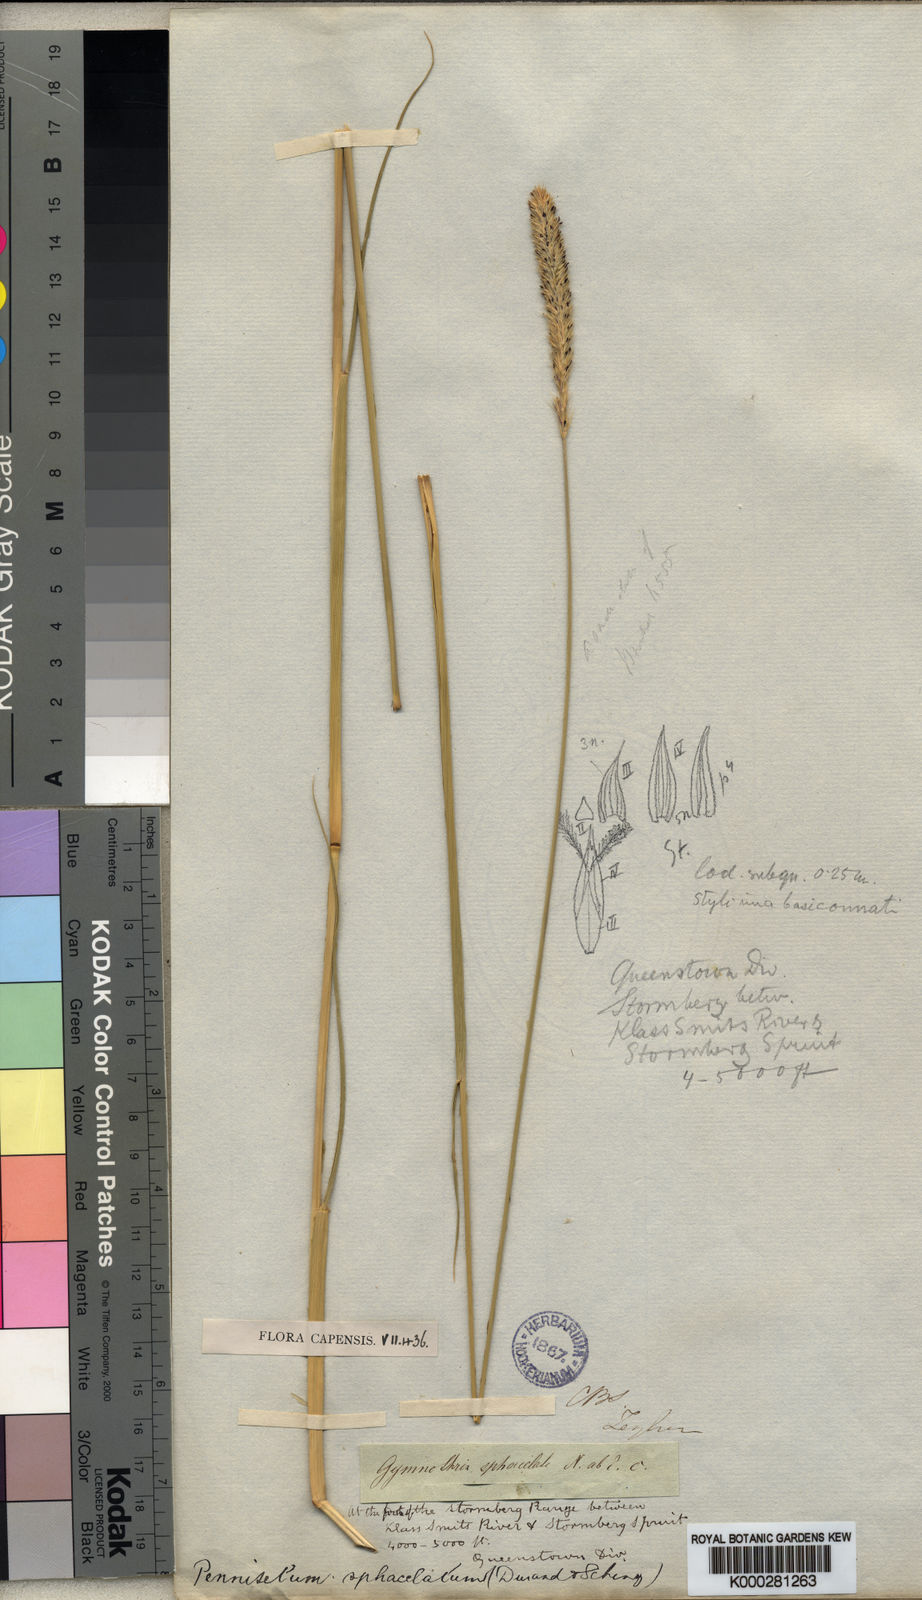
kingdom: Plantae
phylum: Tracheophyta
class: Liliopsida
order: Poales
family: Poaceae
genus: Cenchrus
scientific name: Cenchrus sphacelatus
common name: Bulgras
